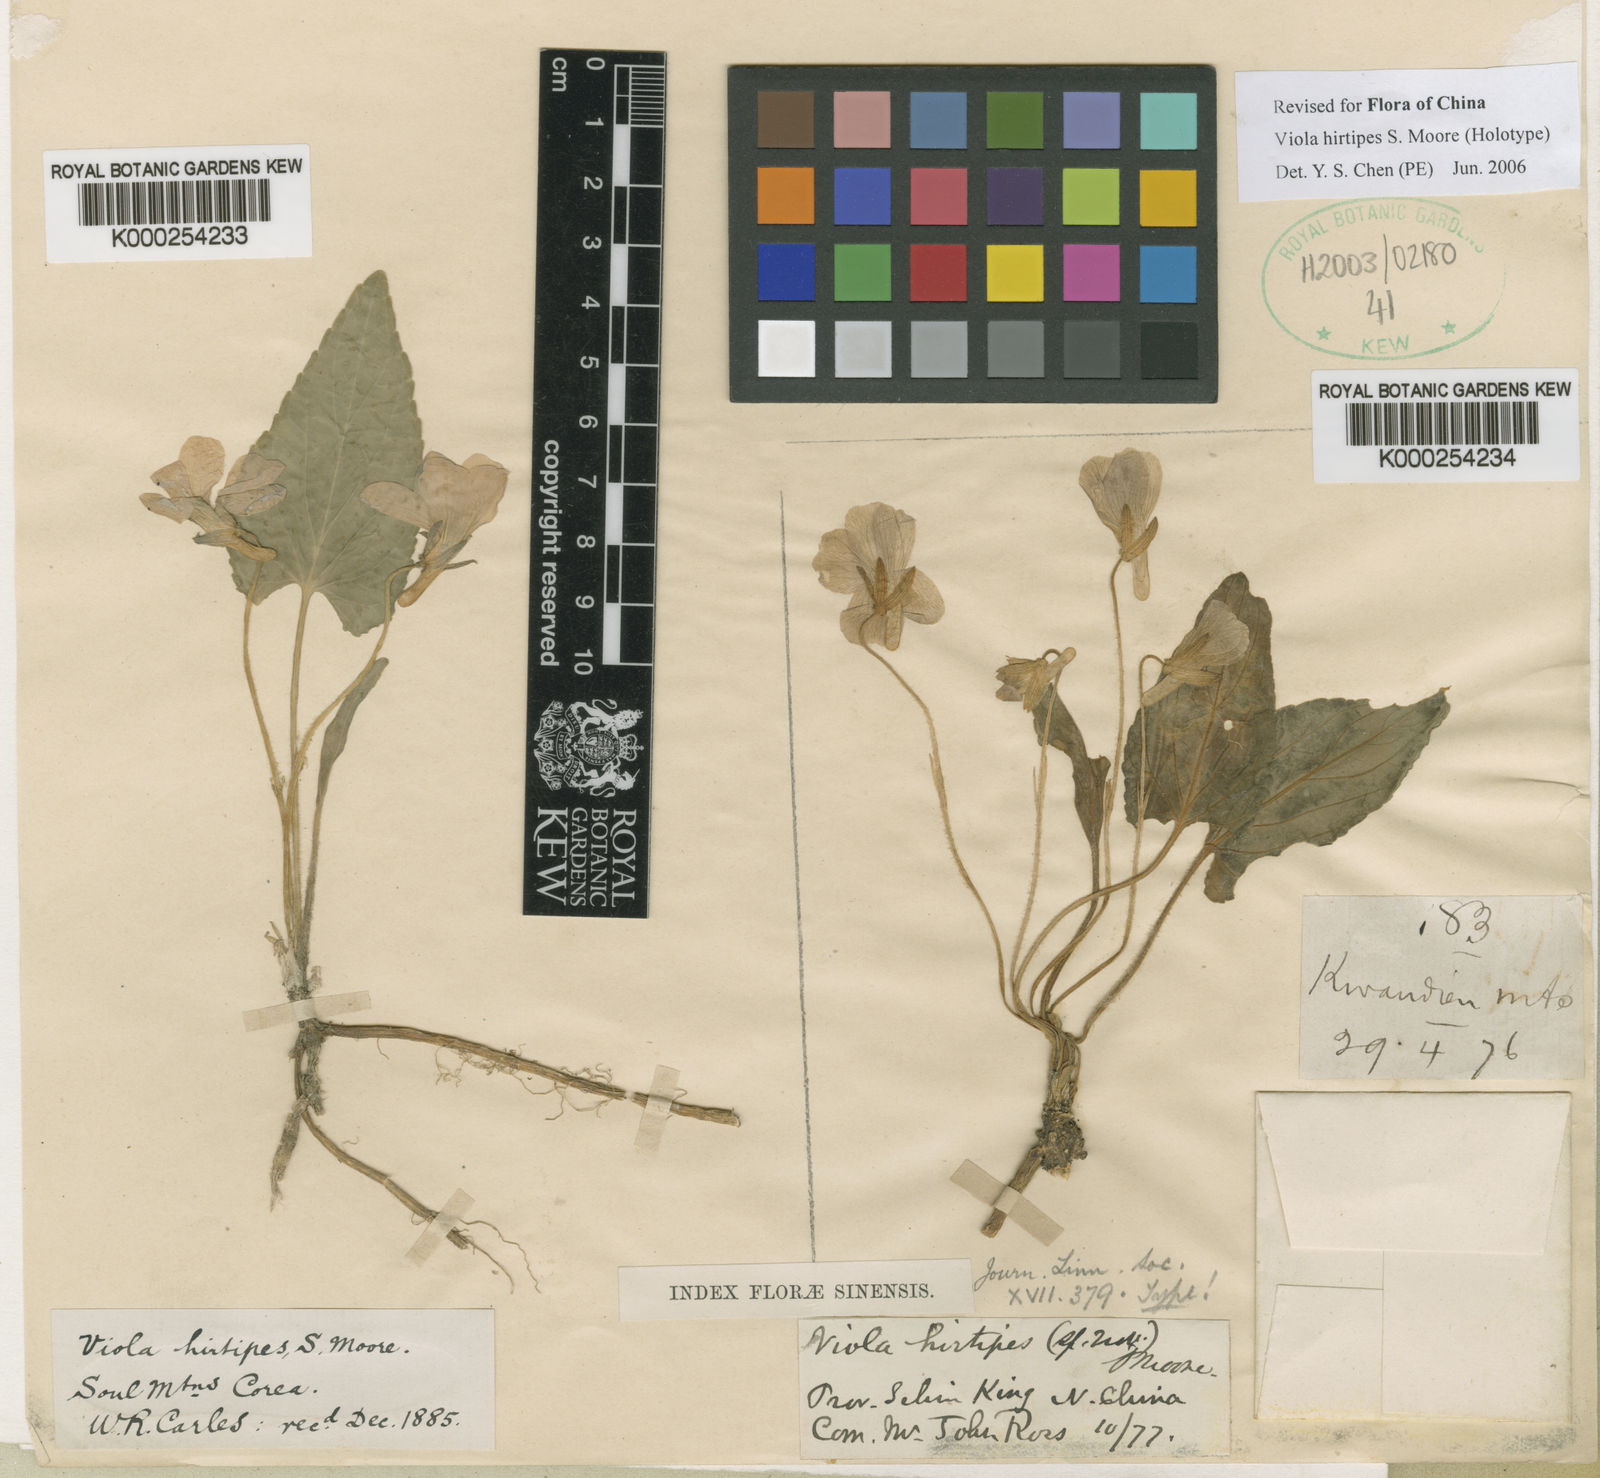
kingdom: Plantae
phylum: Tracheophyta
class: Magnoliopsida
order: Malpighiales
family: Violaceae
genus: Viola
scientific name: Viola hirtipes
